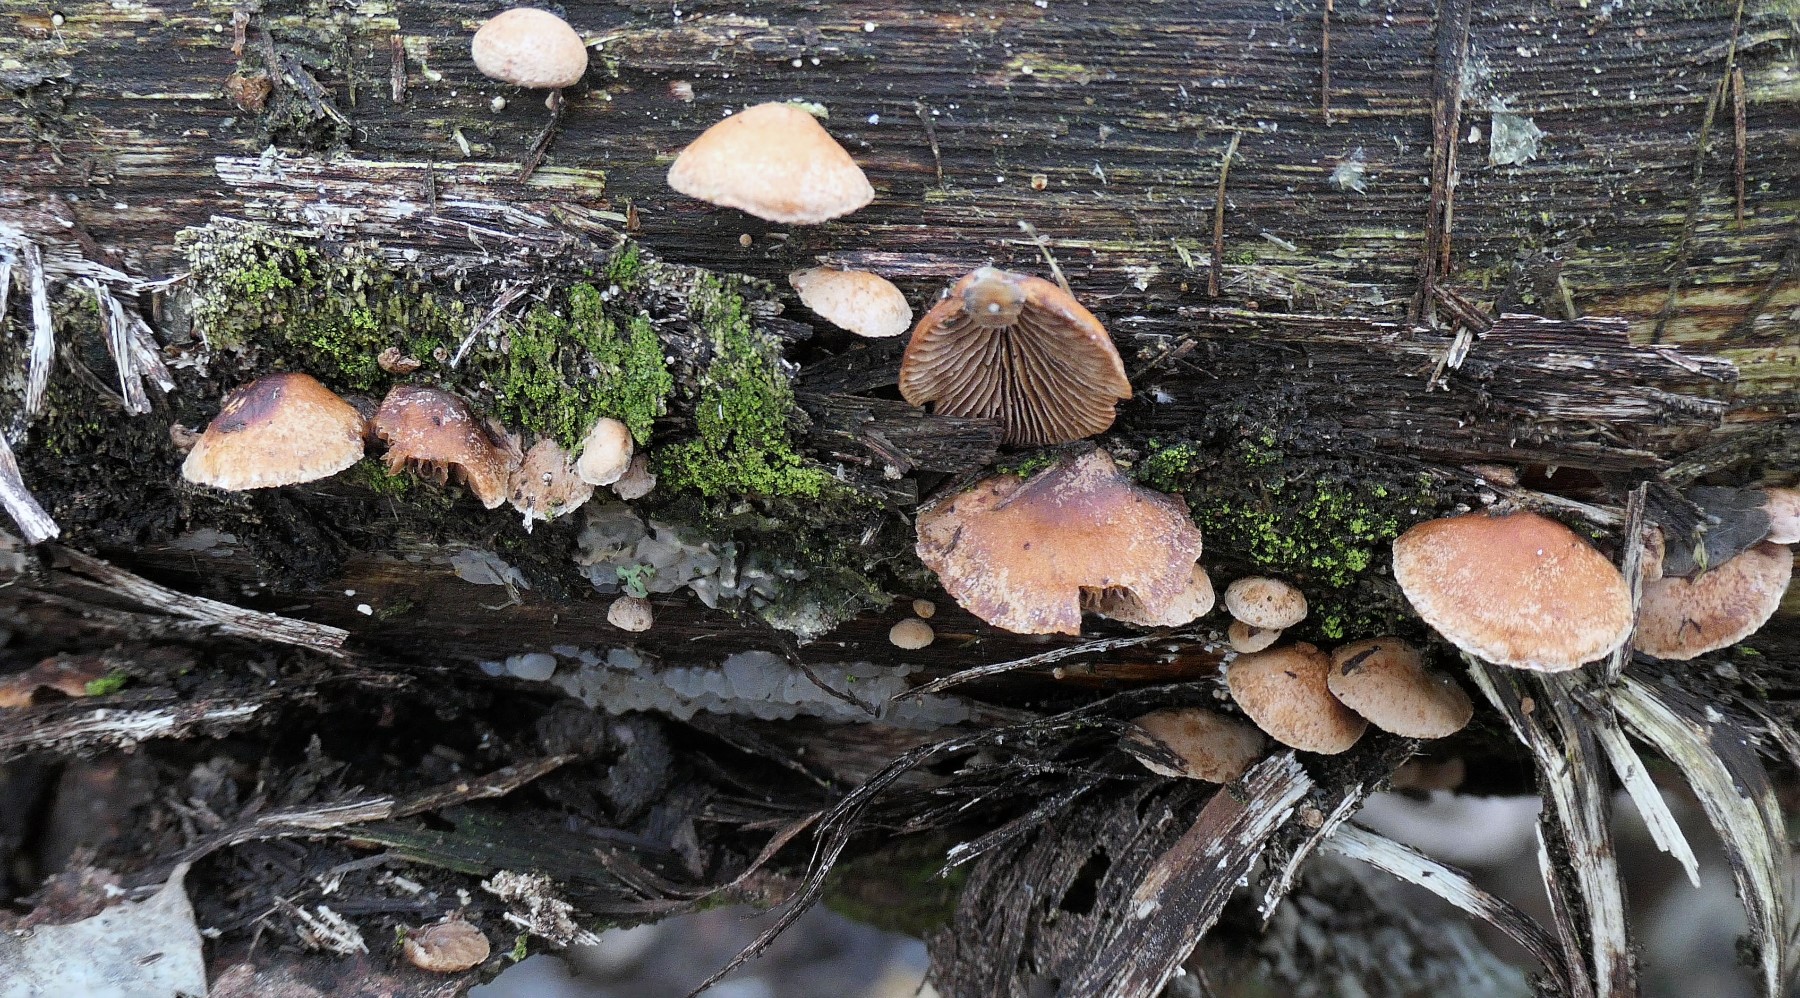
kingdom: Fungi
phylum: Basidiomycota
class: Agaricomycetes
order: Agaricales
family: Strophariaceae
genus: Deconica
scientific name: Deconica horizontalis
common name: ved-stråhat
